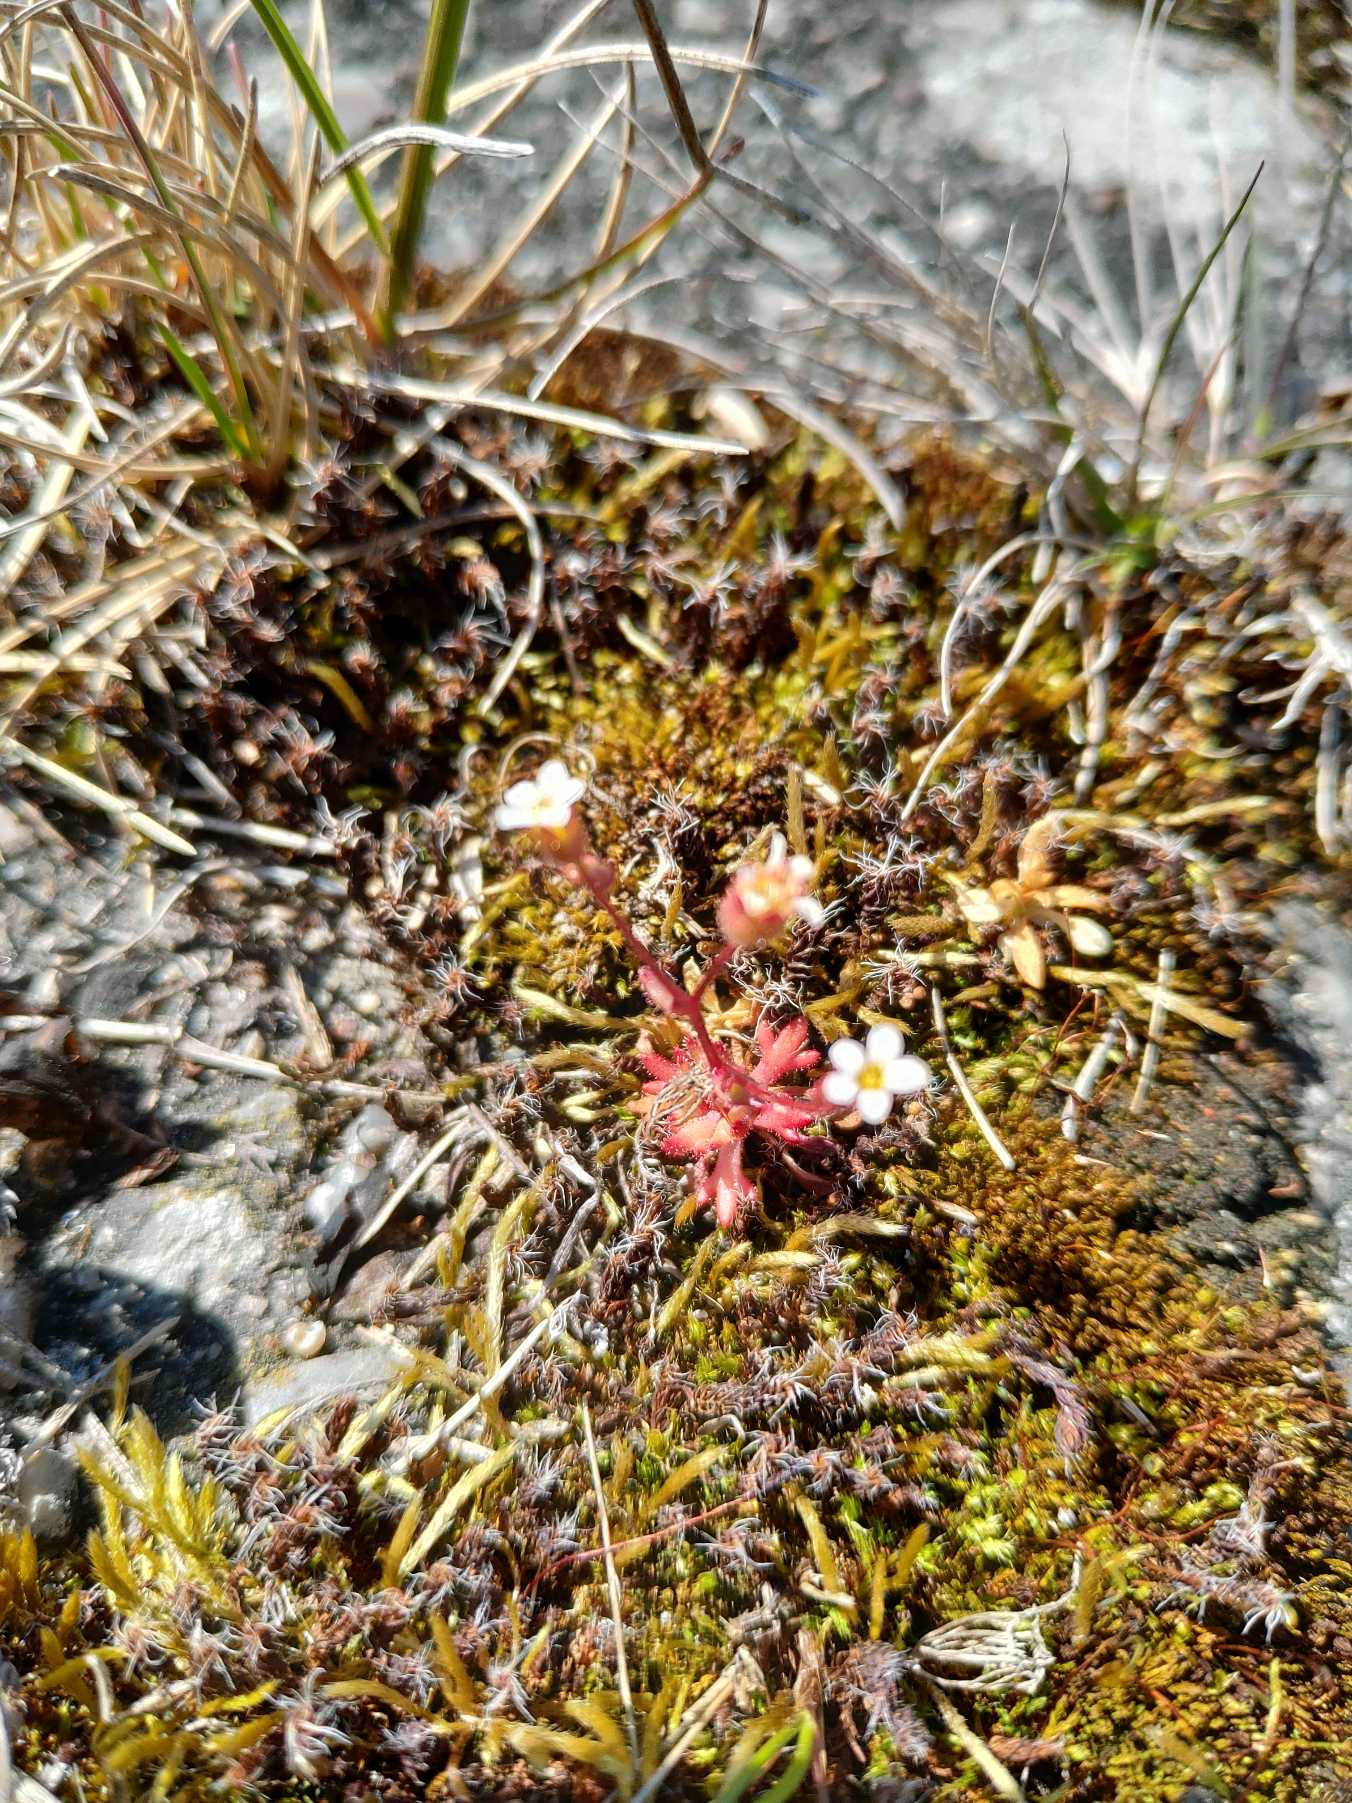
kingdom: Plantae
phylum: Tracheophyta
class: Magnoliopsida
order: Saxifragales
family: Saxifragaceae
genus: Saxifraga
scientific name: Saxifraga tridactylites
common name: Trekløft-stenbræk
